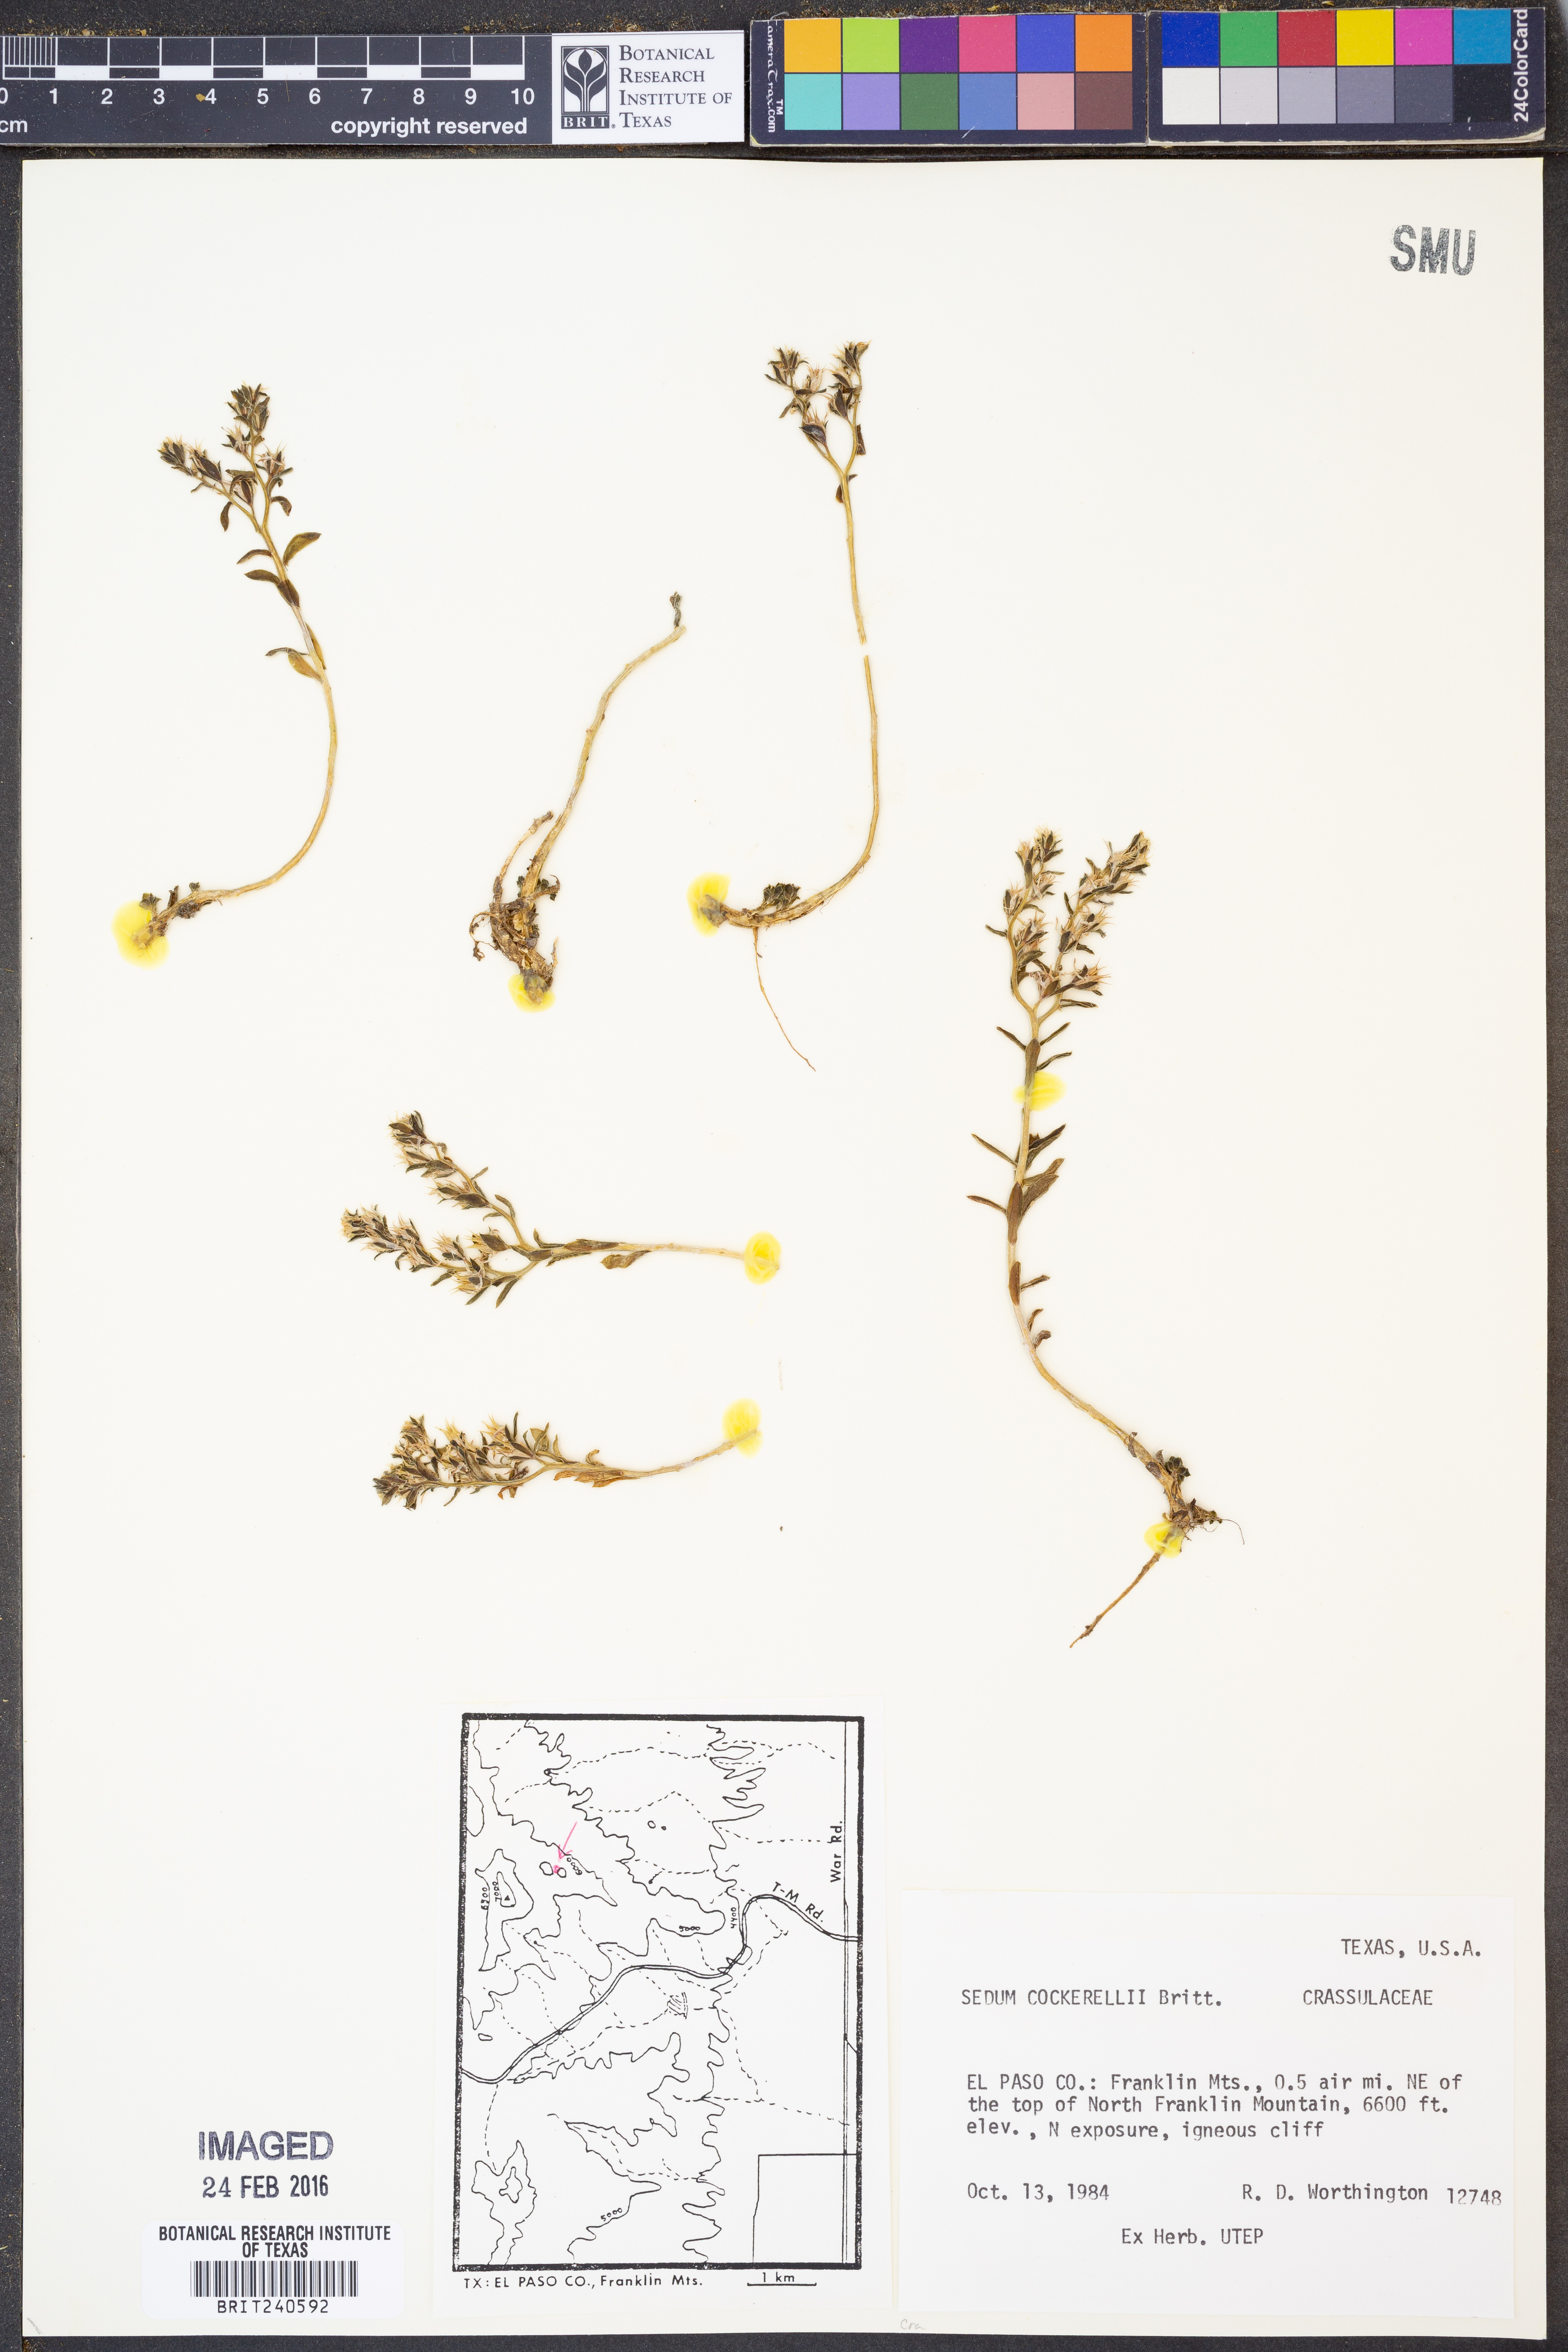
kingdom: Plantae
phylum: Tracheophyta
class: Magnoliopsida
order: Saxifragales
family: Crassulaceae
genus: Sedum
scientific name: Sedum cockerellii
